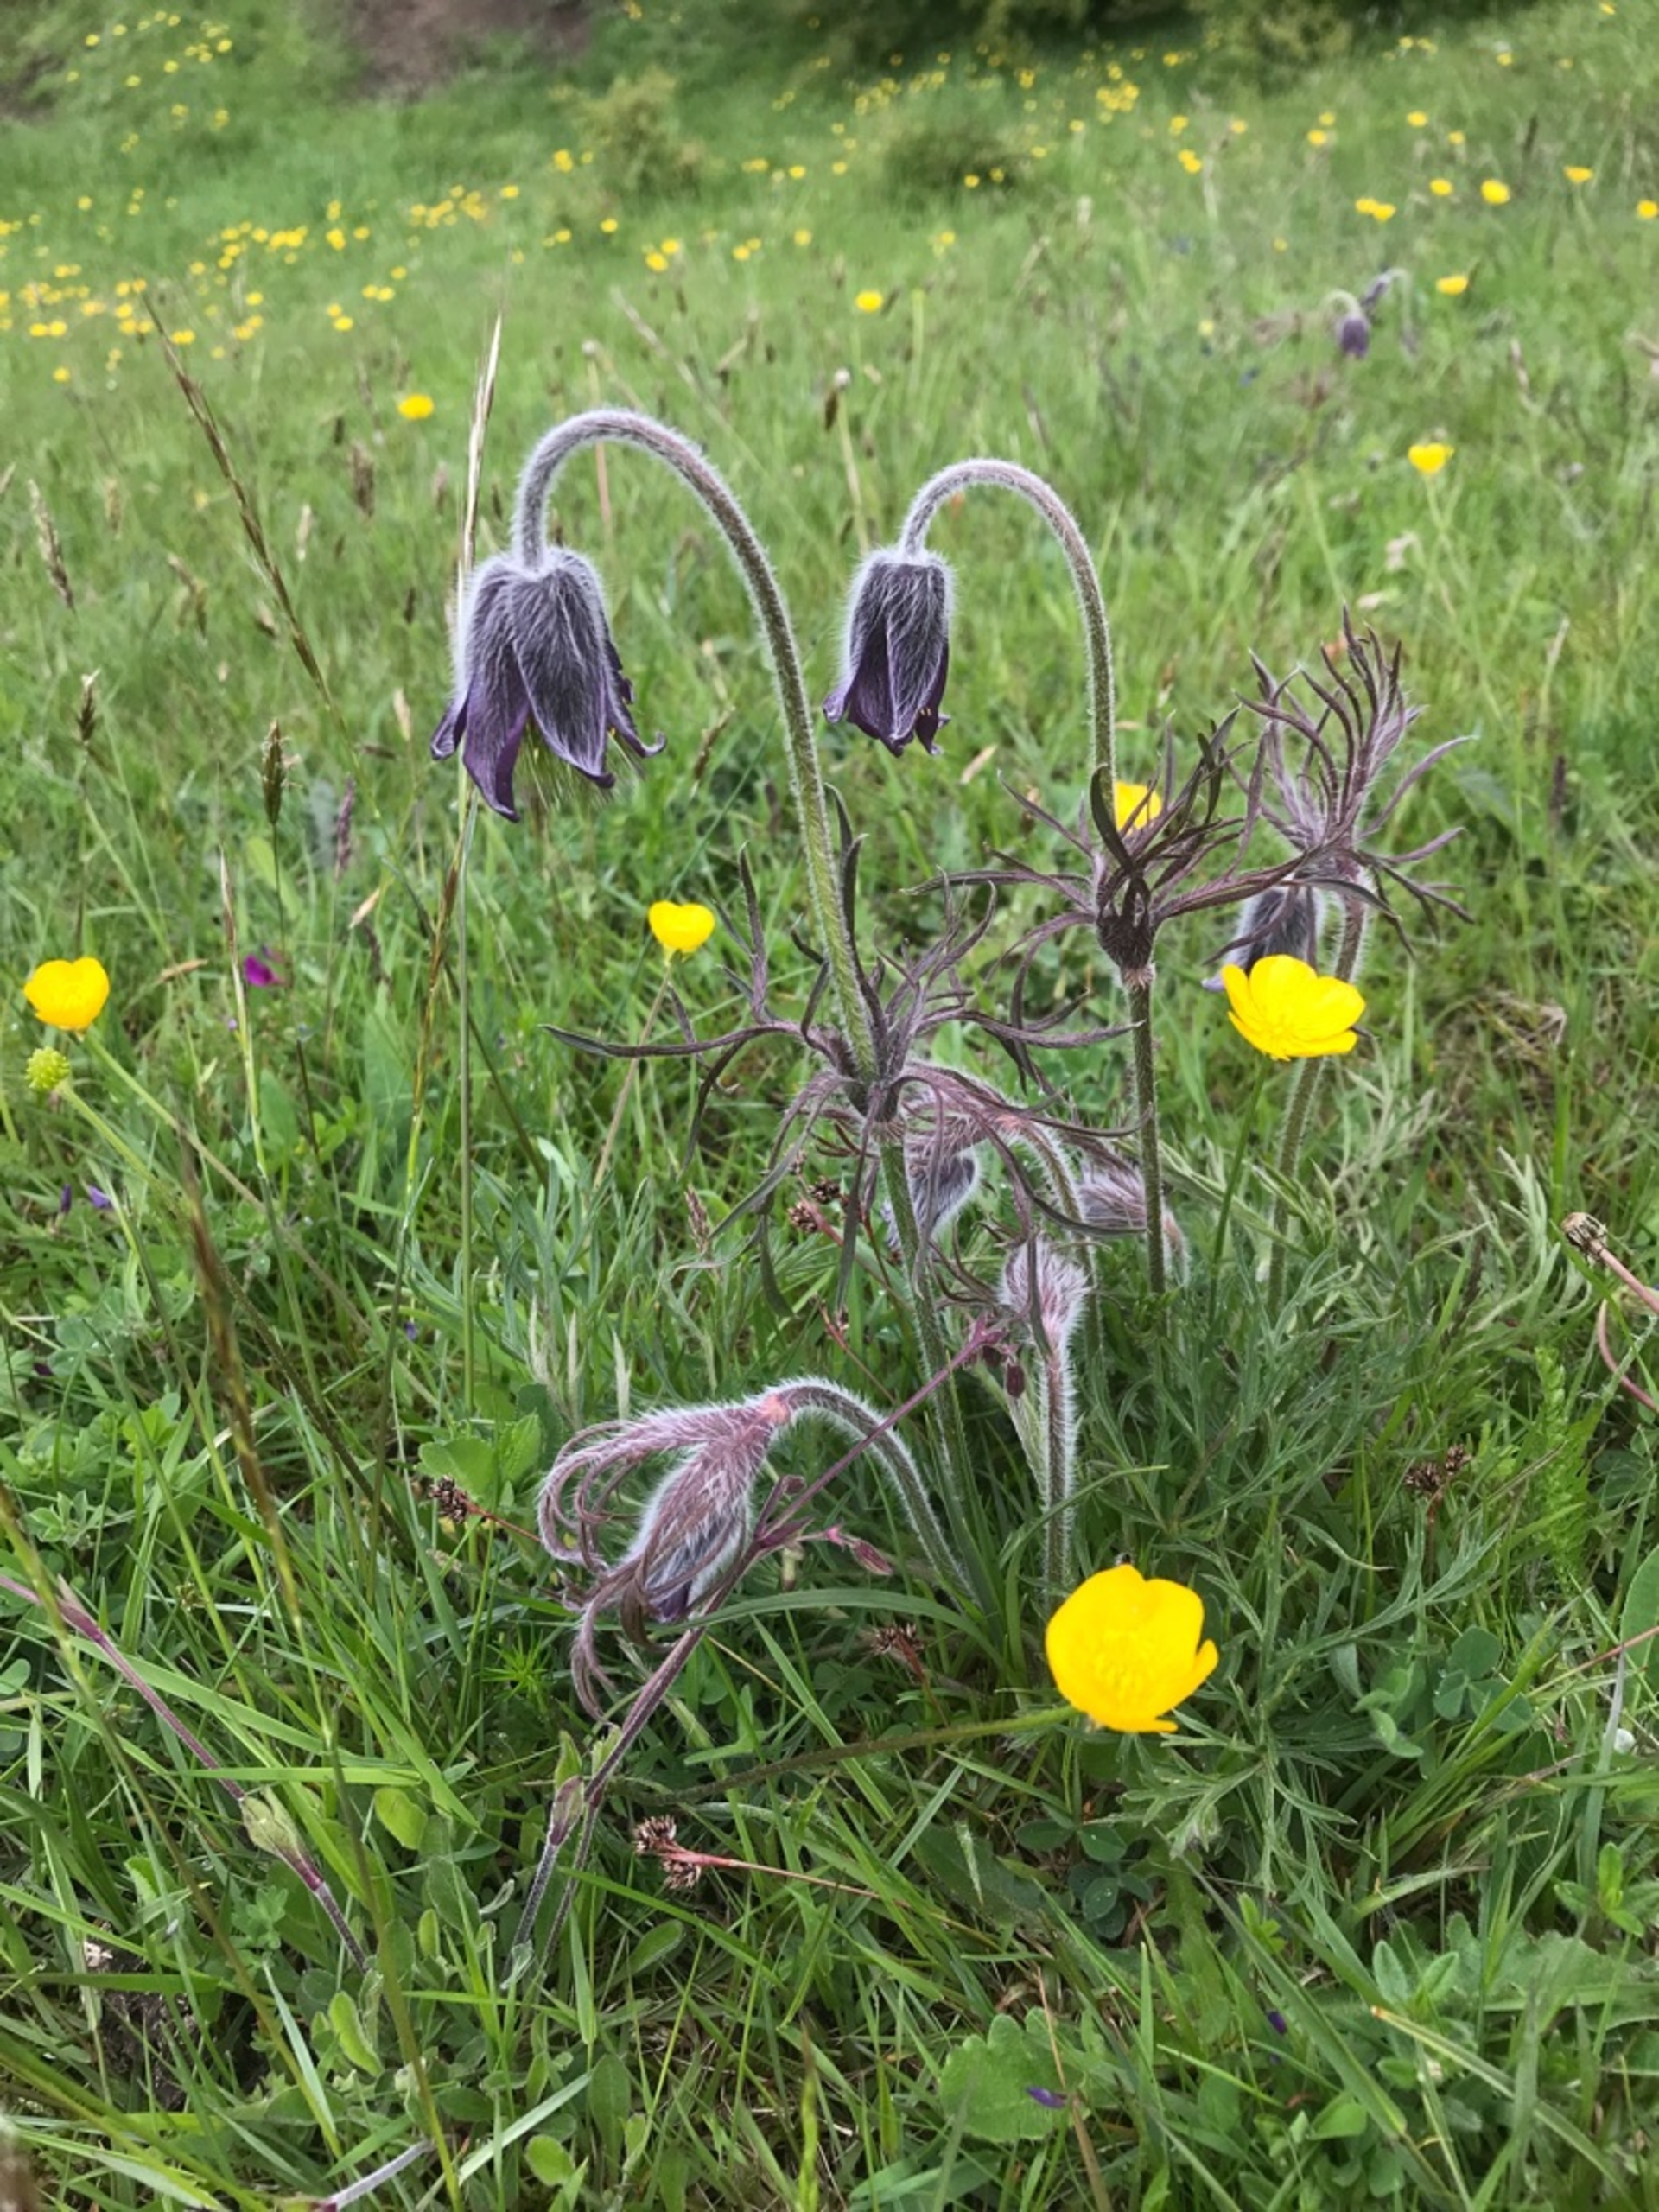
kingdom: Plantae
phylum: Tracheophyta
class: Magnoliopsida
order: Ranunculales
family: Ranunculaceae
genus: Pulsatilla
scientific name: Pulsatilla pratensis
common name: Nikkende kobjælde
